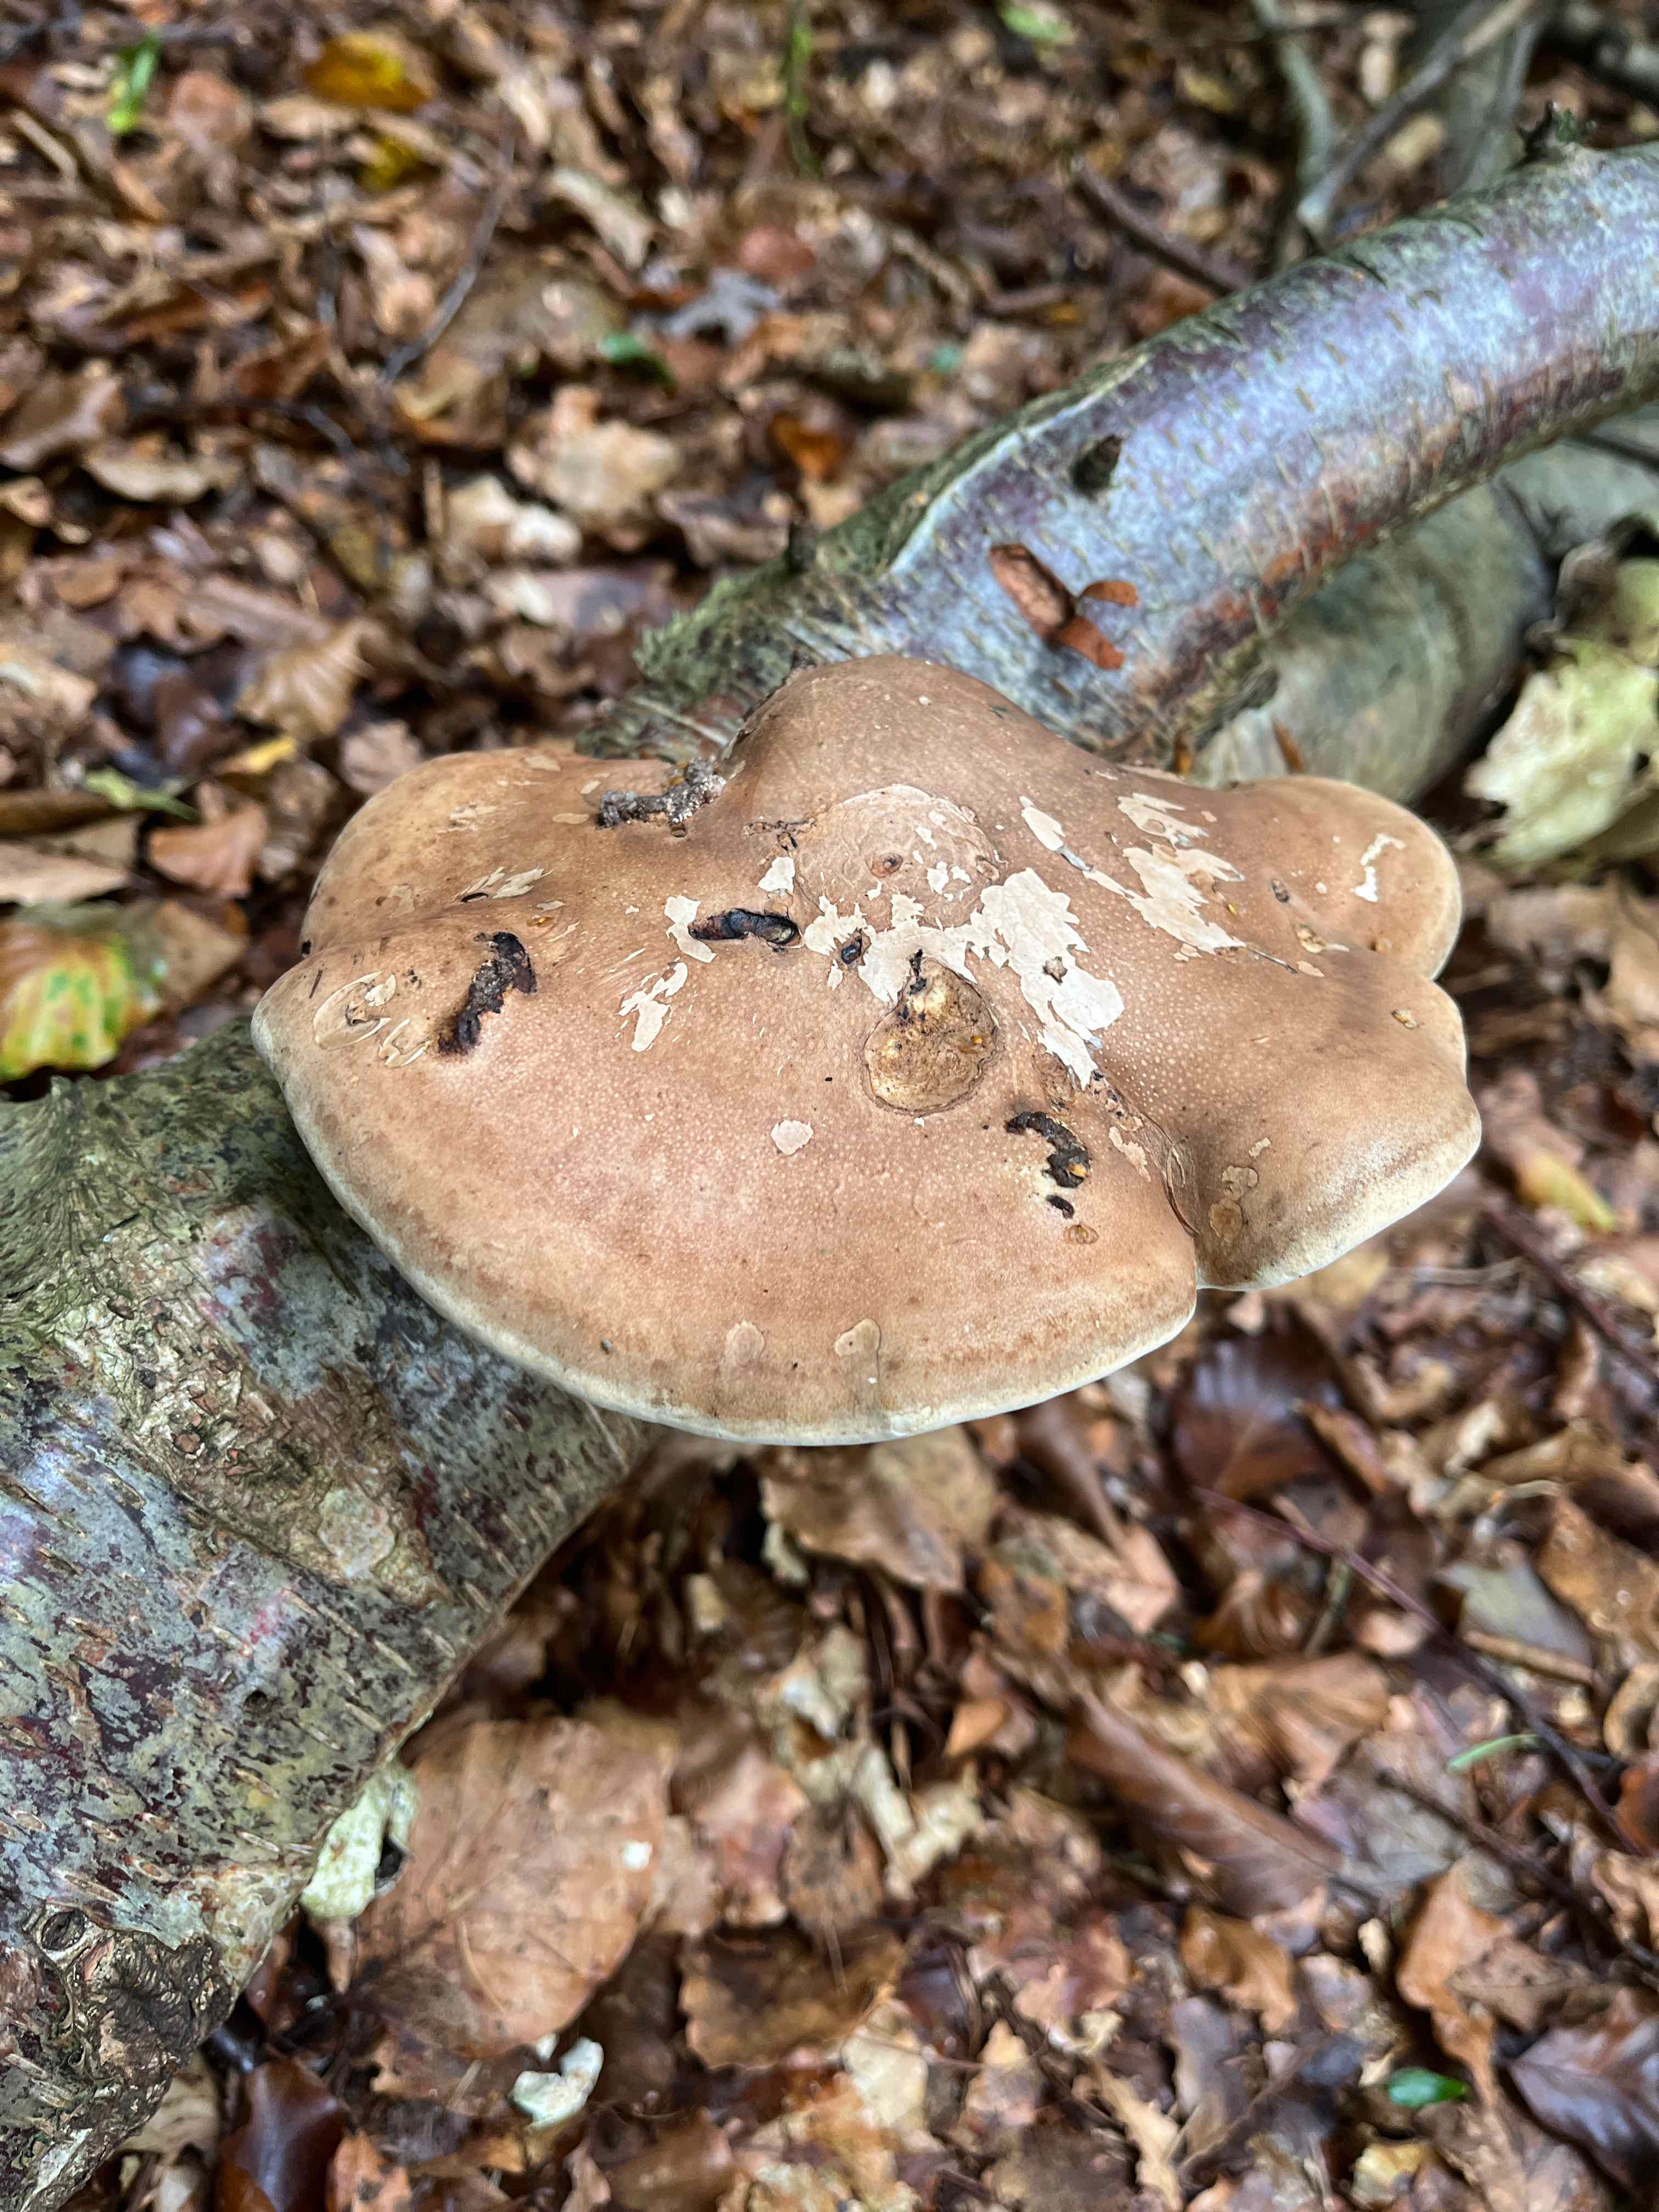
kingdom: Fungi
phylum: Basidiomycota
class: Agaricomycetes
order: Polyporales
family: Fomitopsidaceae
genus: Fomitopsis
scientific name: Fomitopsis betulina
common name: birkeporesvamp
